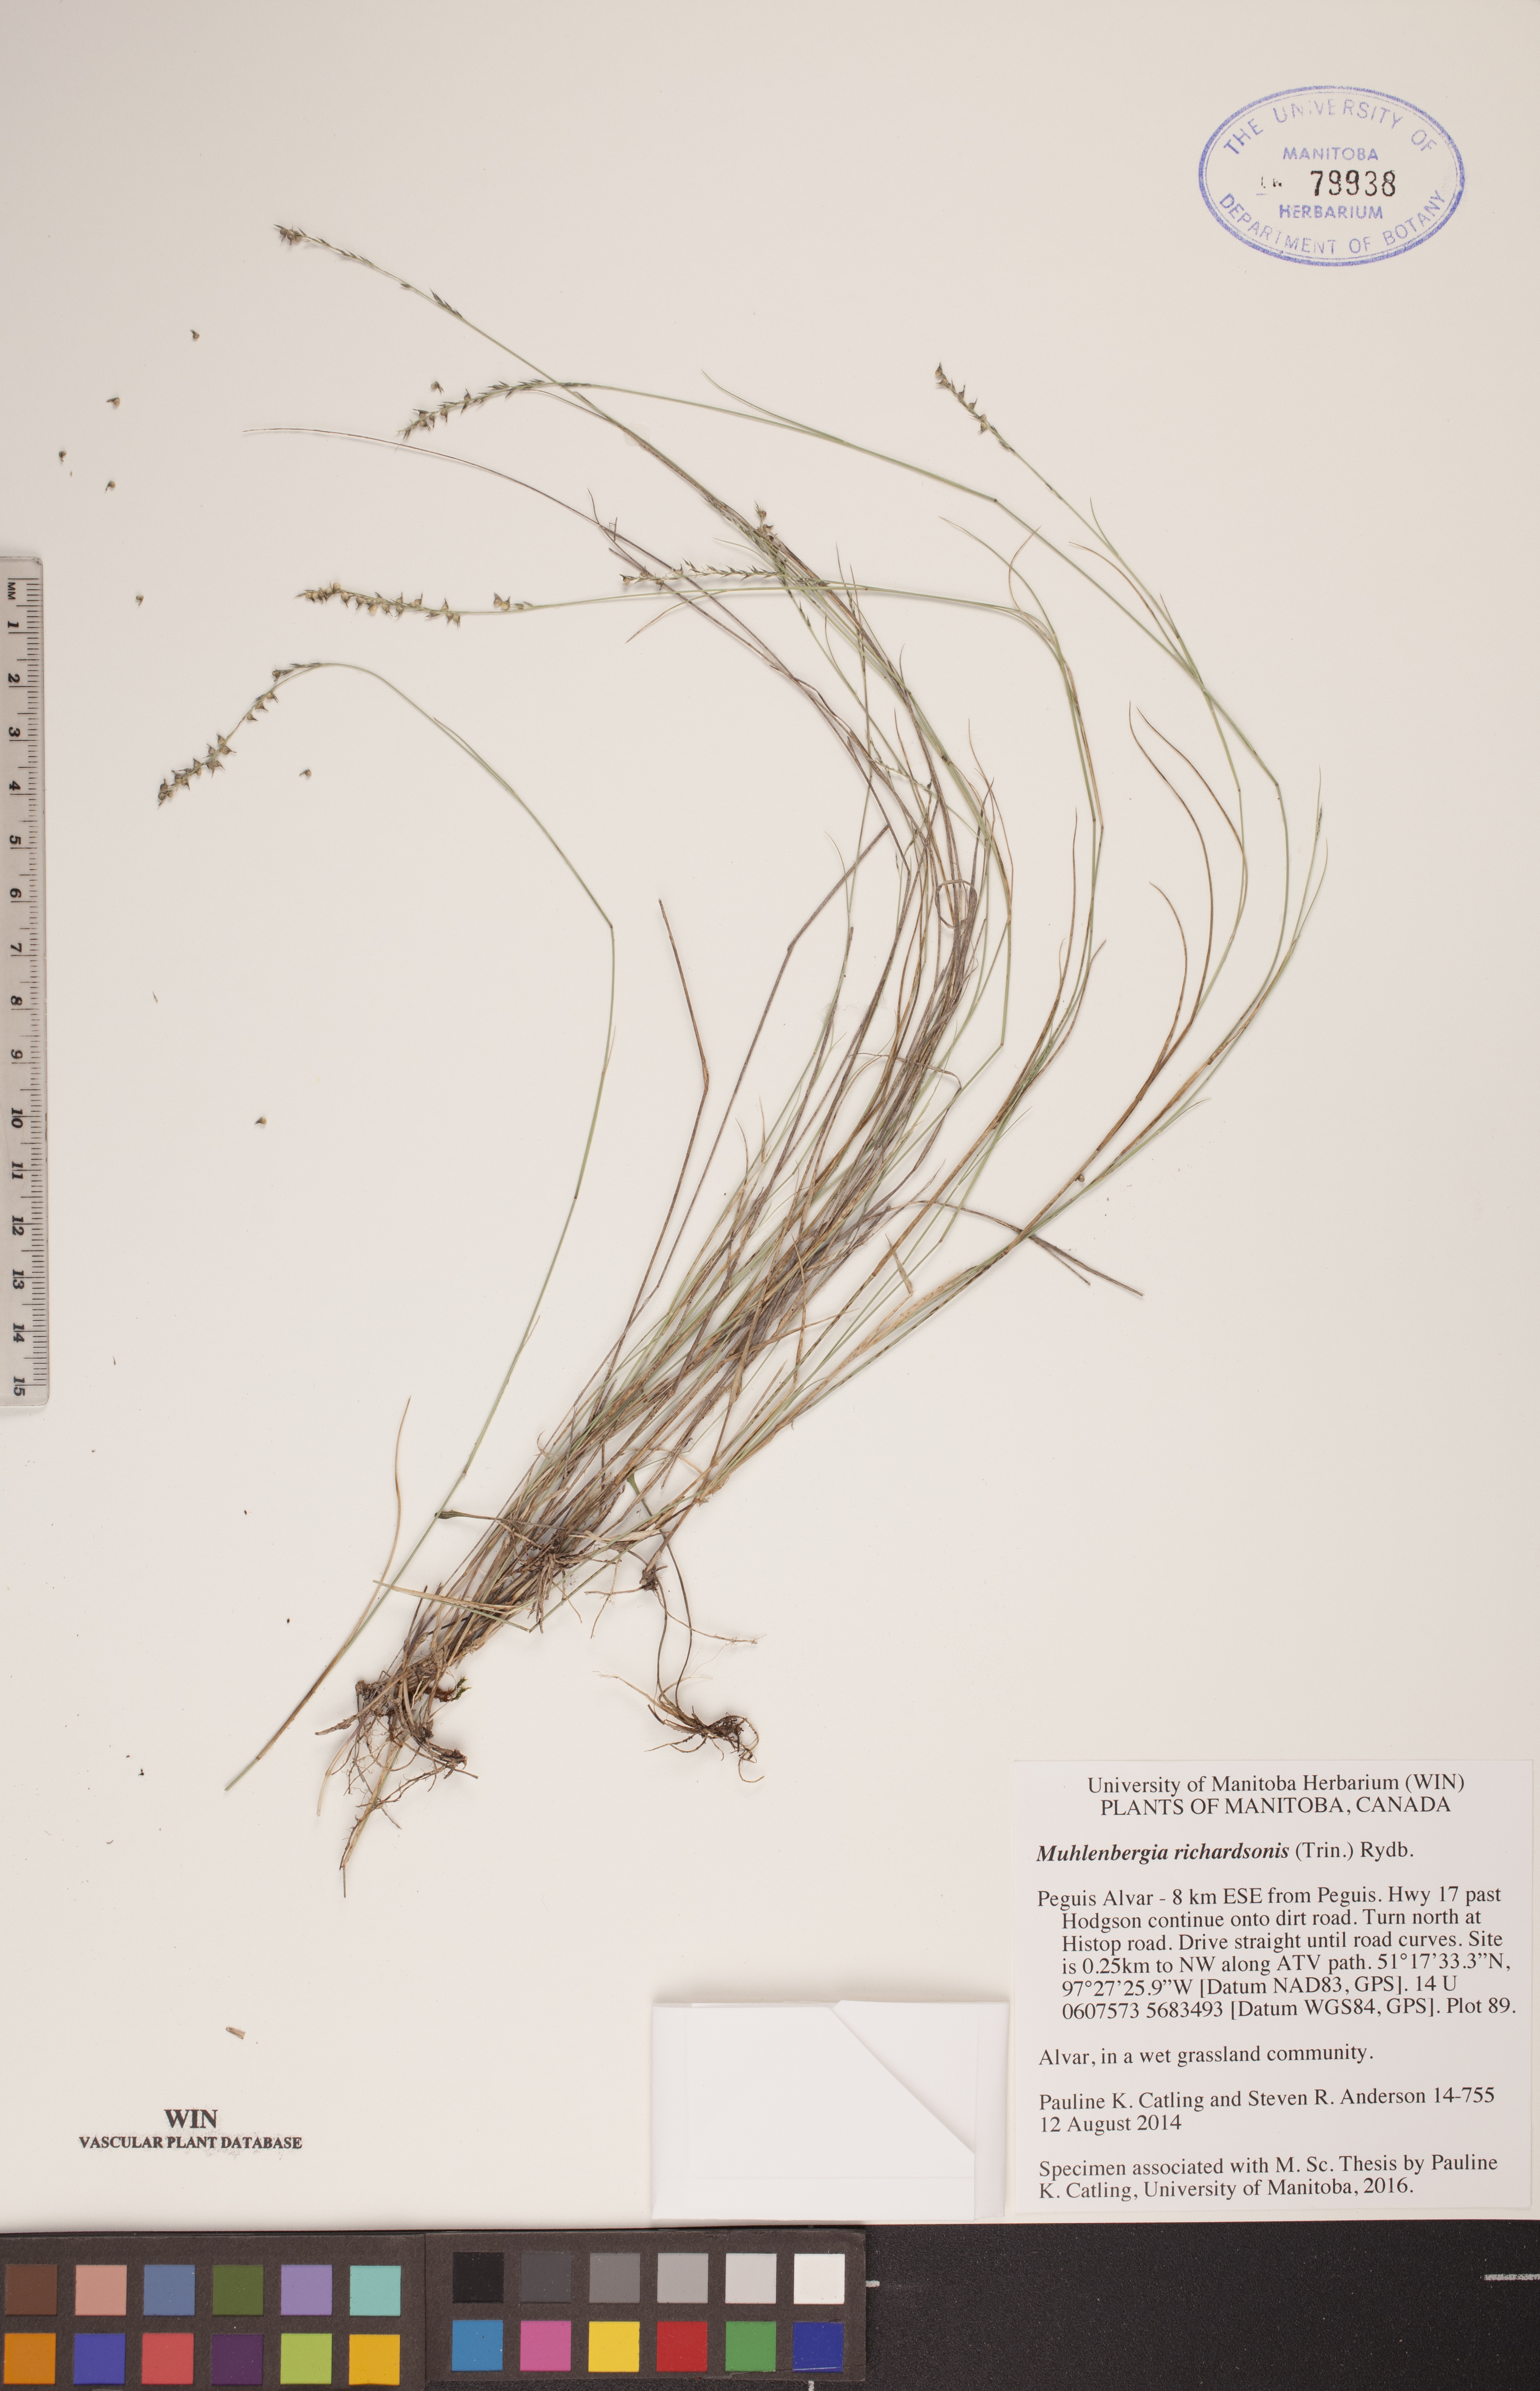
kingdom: Plantae
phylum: Tracheophyta
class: Liliopsida
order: Poales
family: Poaceae
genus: Muhlenbergia
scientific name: Muhlenbergia richardsonis
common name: Mat muhly
